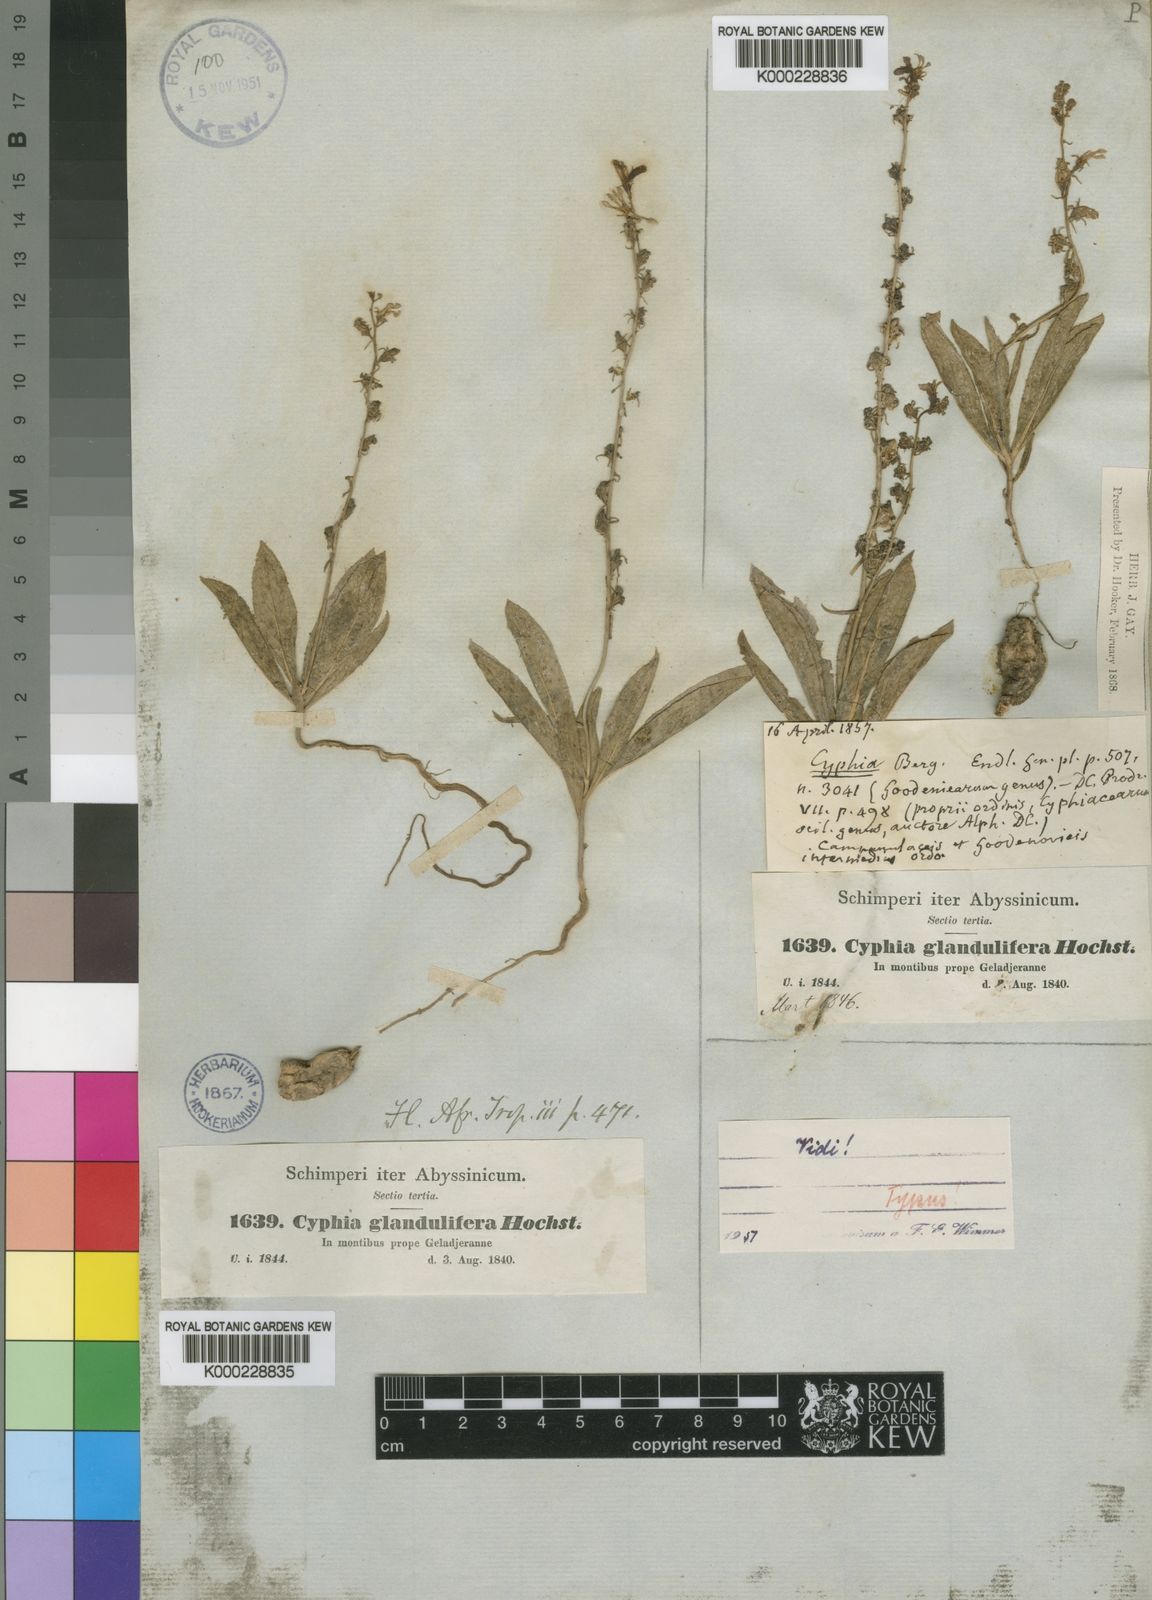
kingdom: Plantae
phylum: Tracheophyta
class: Magnoliopsida
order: Asterales
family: Campanulaceae
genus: Cyphia
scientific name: Cyphia glandulifera
